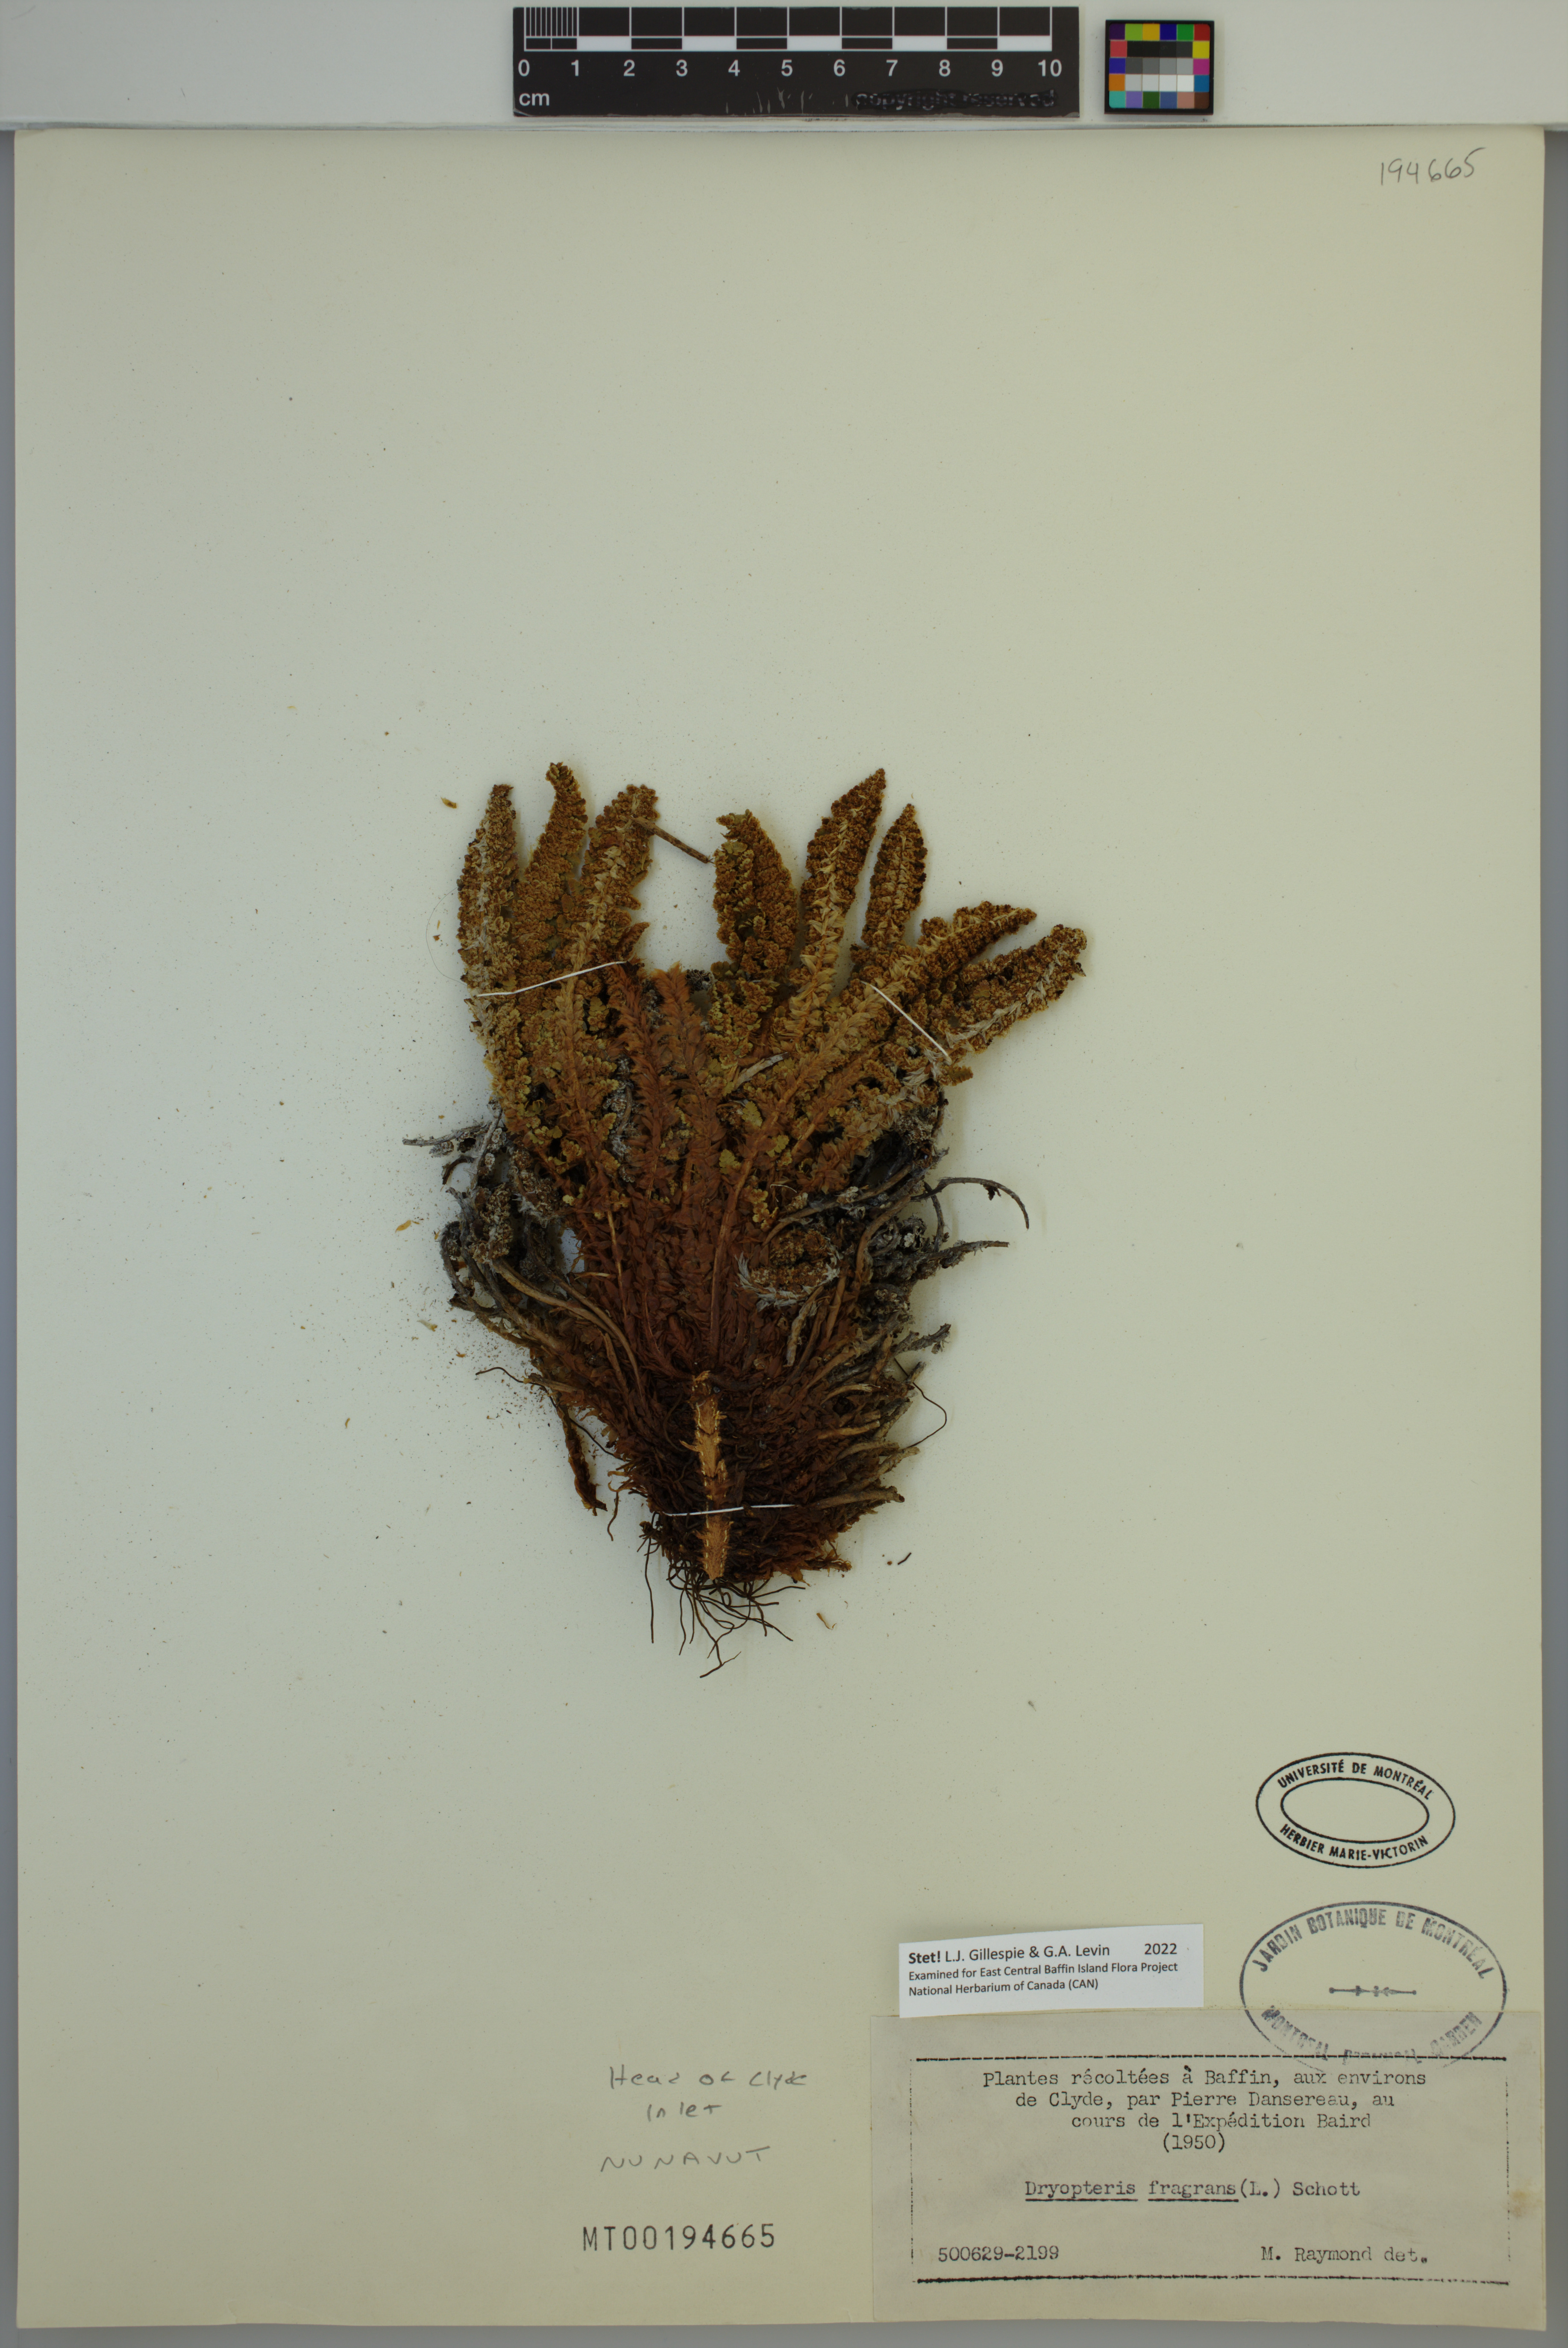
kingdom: Plantae
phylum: Tracheophyta
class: Polypodiopsida
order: Polypodiales
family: Dryopteridaceae
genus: Dryopteris
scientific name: Dryopteris fragrans
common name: Fragrant wood fern
